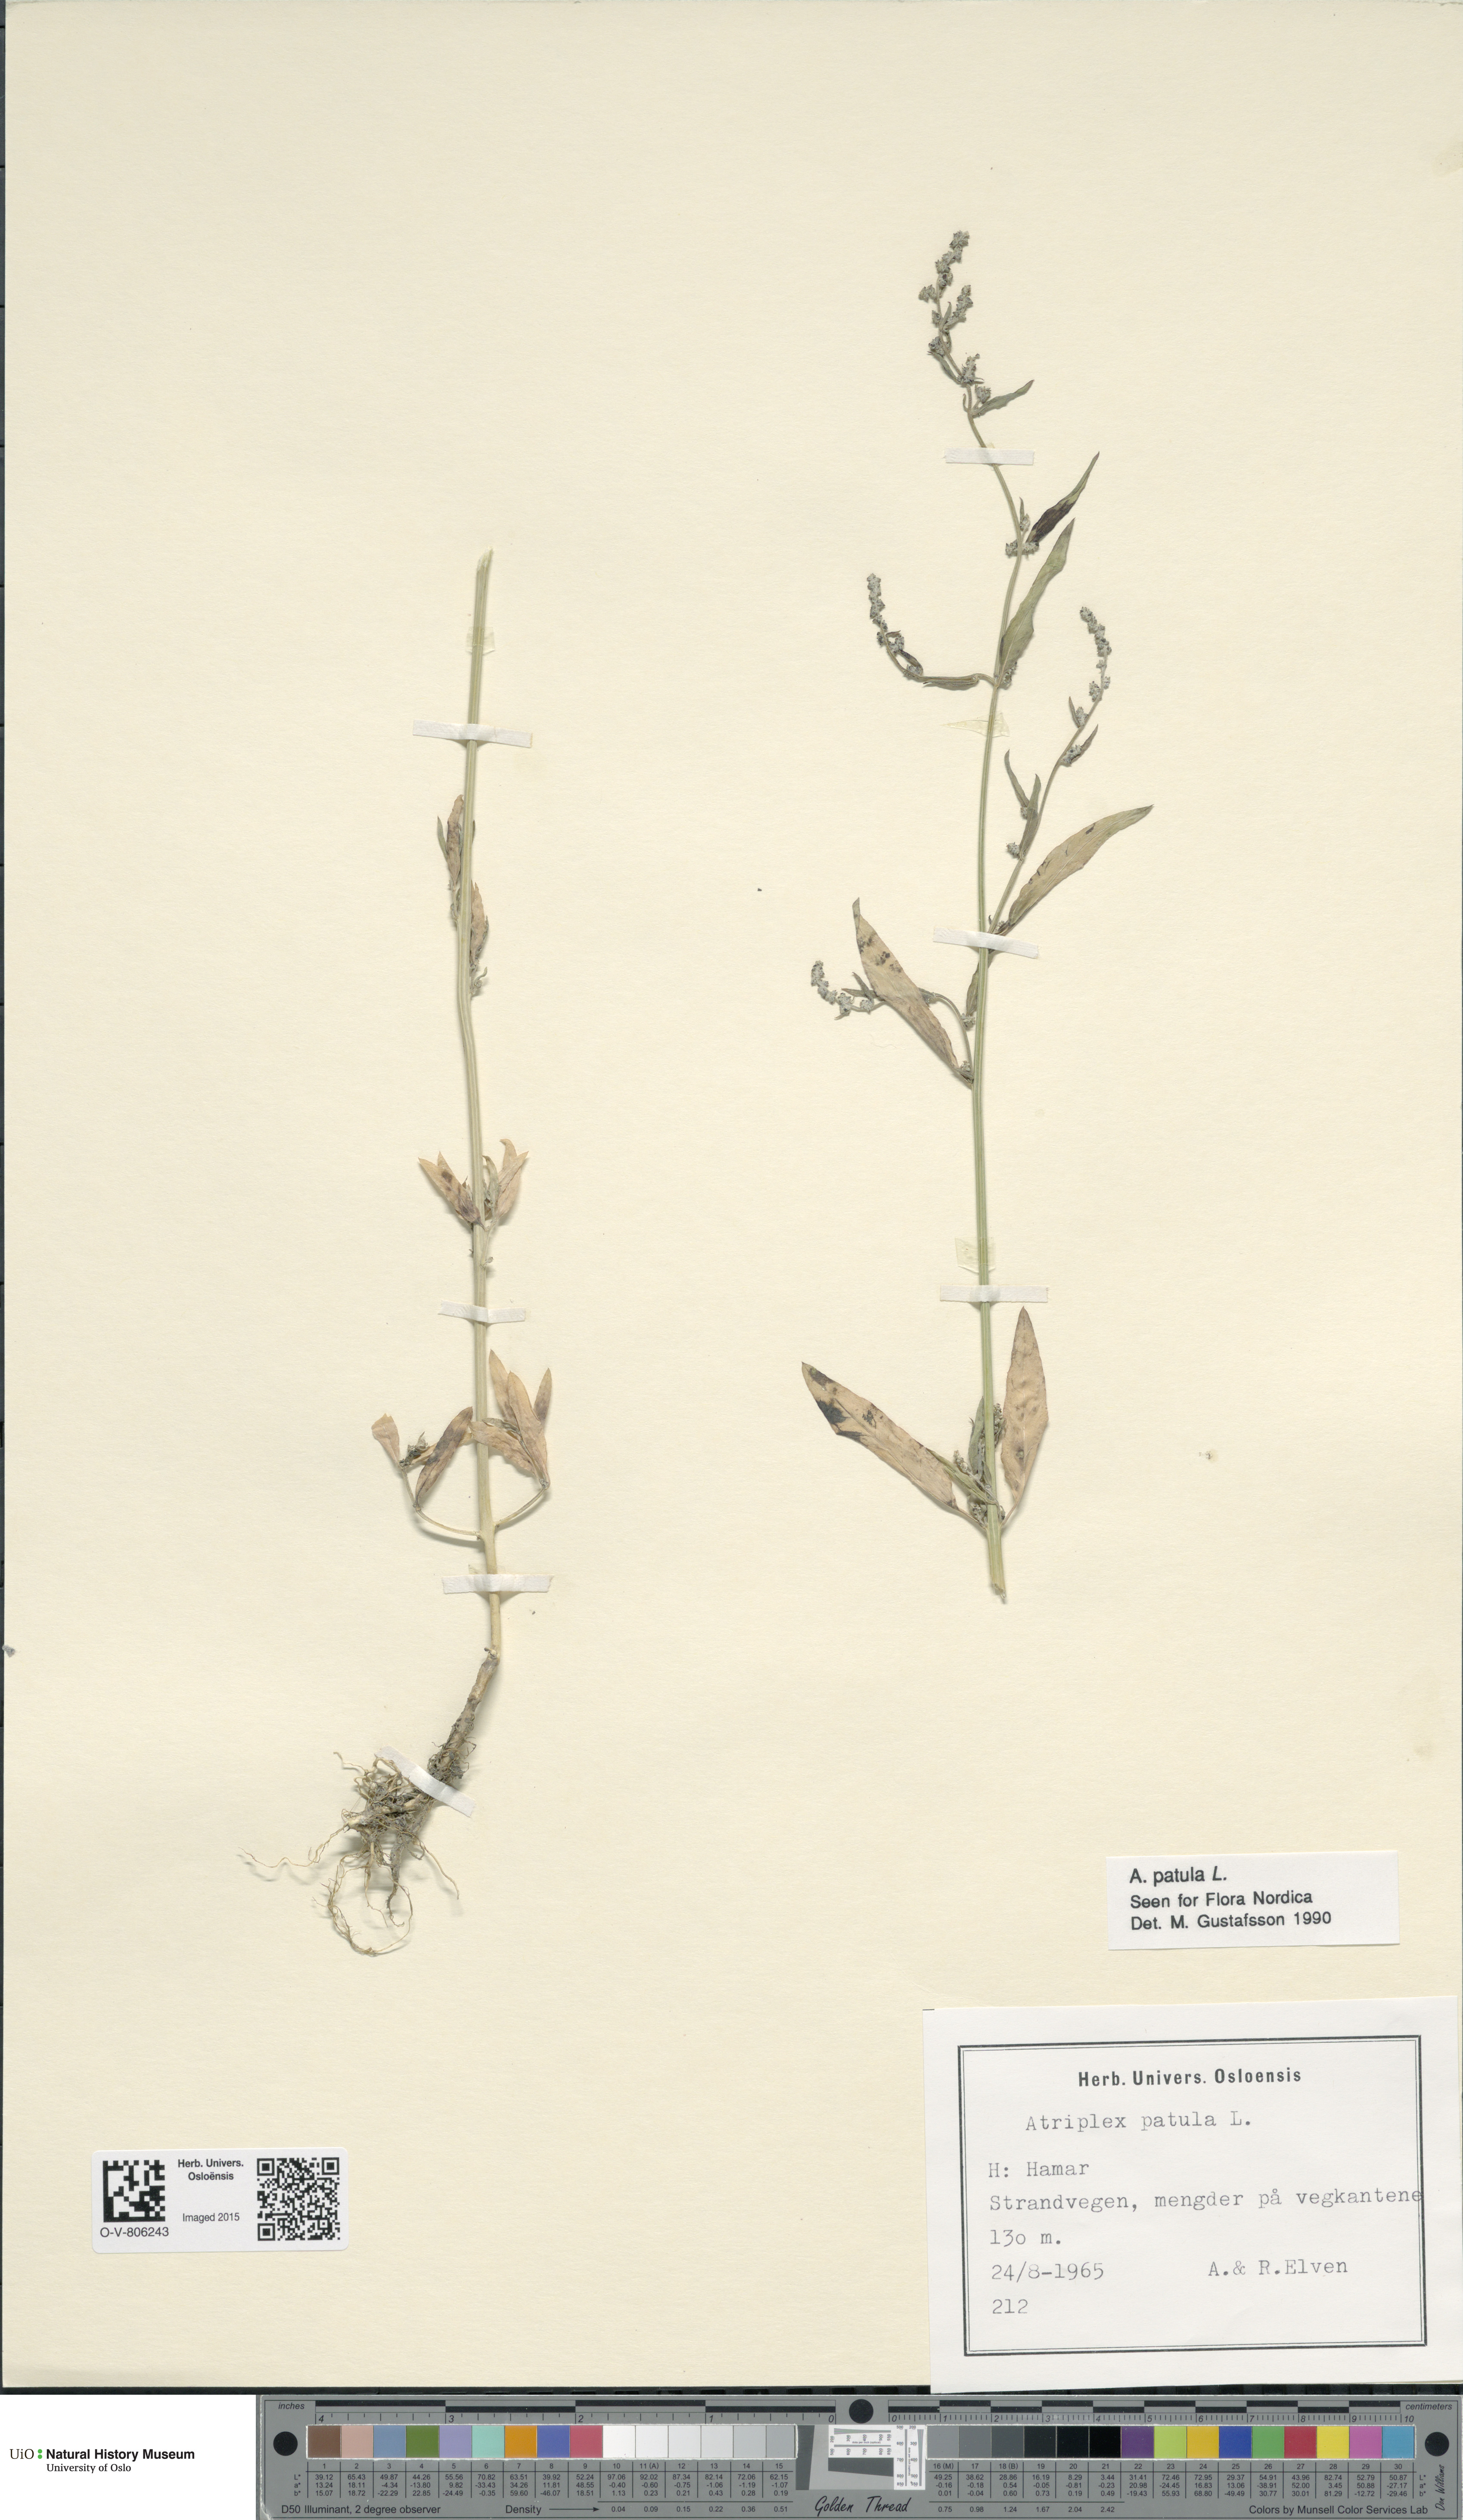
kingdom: Plantae
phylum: Tracheophyta
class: Magnoliopsida
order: Caryophyllales
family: Amaranthaceae
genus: Atriplex
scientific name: Atriplex patula
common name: Common orache
